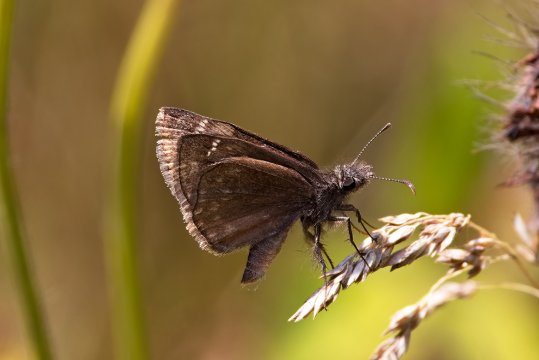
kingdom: Animalia
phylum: Arthropoda
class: Insecta
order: Lepidoptera
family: Hesperiidae
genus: Gesta
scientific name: Gesta
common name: Columbine Duskywing
